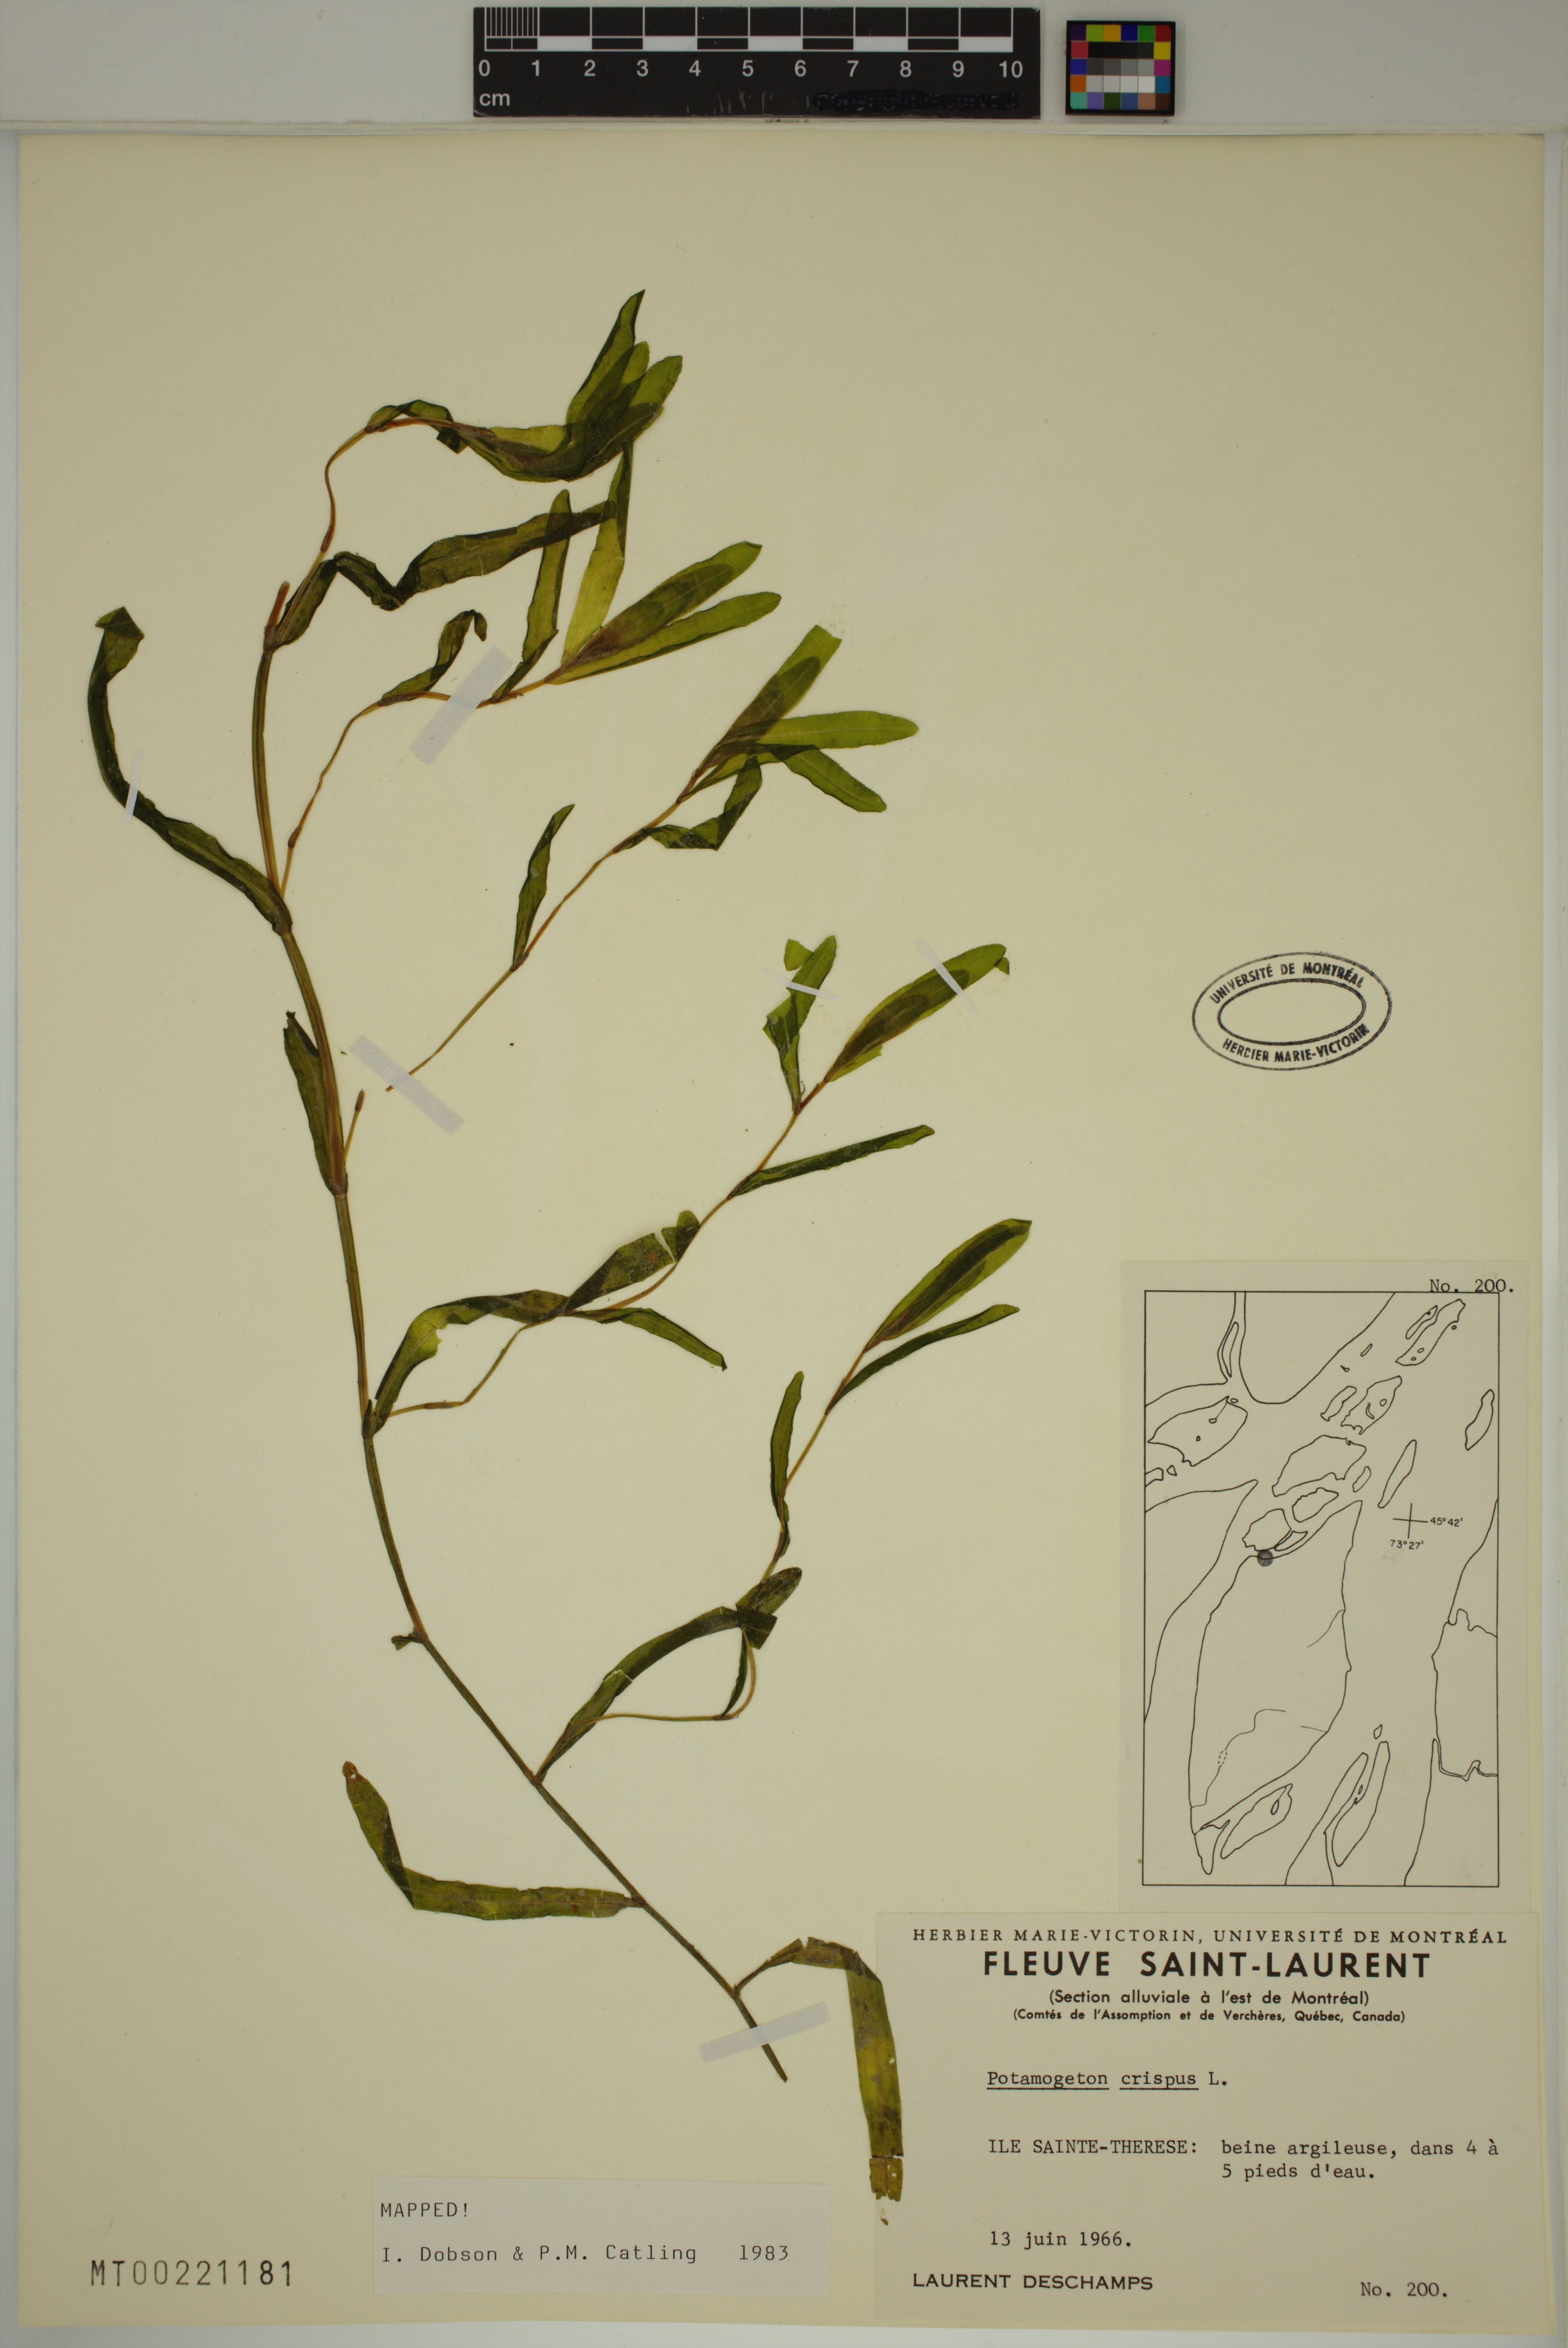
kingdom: Plantae
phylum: Tracheophyta
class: Liliopsida
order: Alismatales
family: Potamogetonaceae
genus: Potamogeton
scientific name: Potamogeton crispus
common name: Curled pondweed
